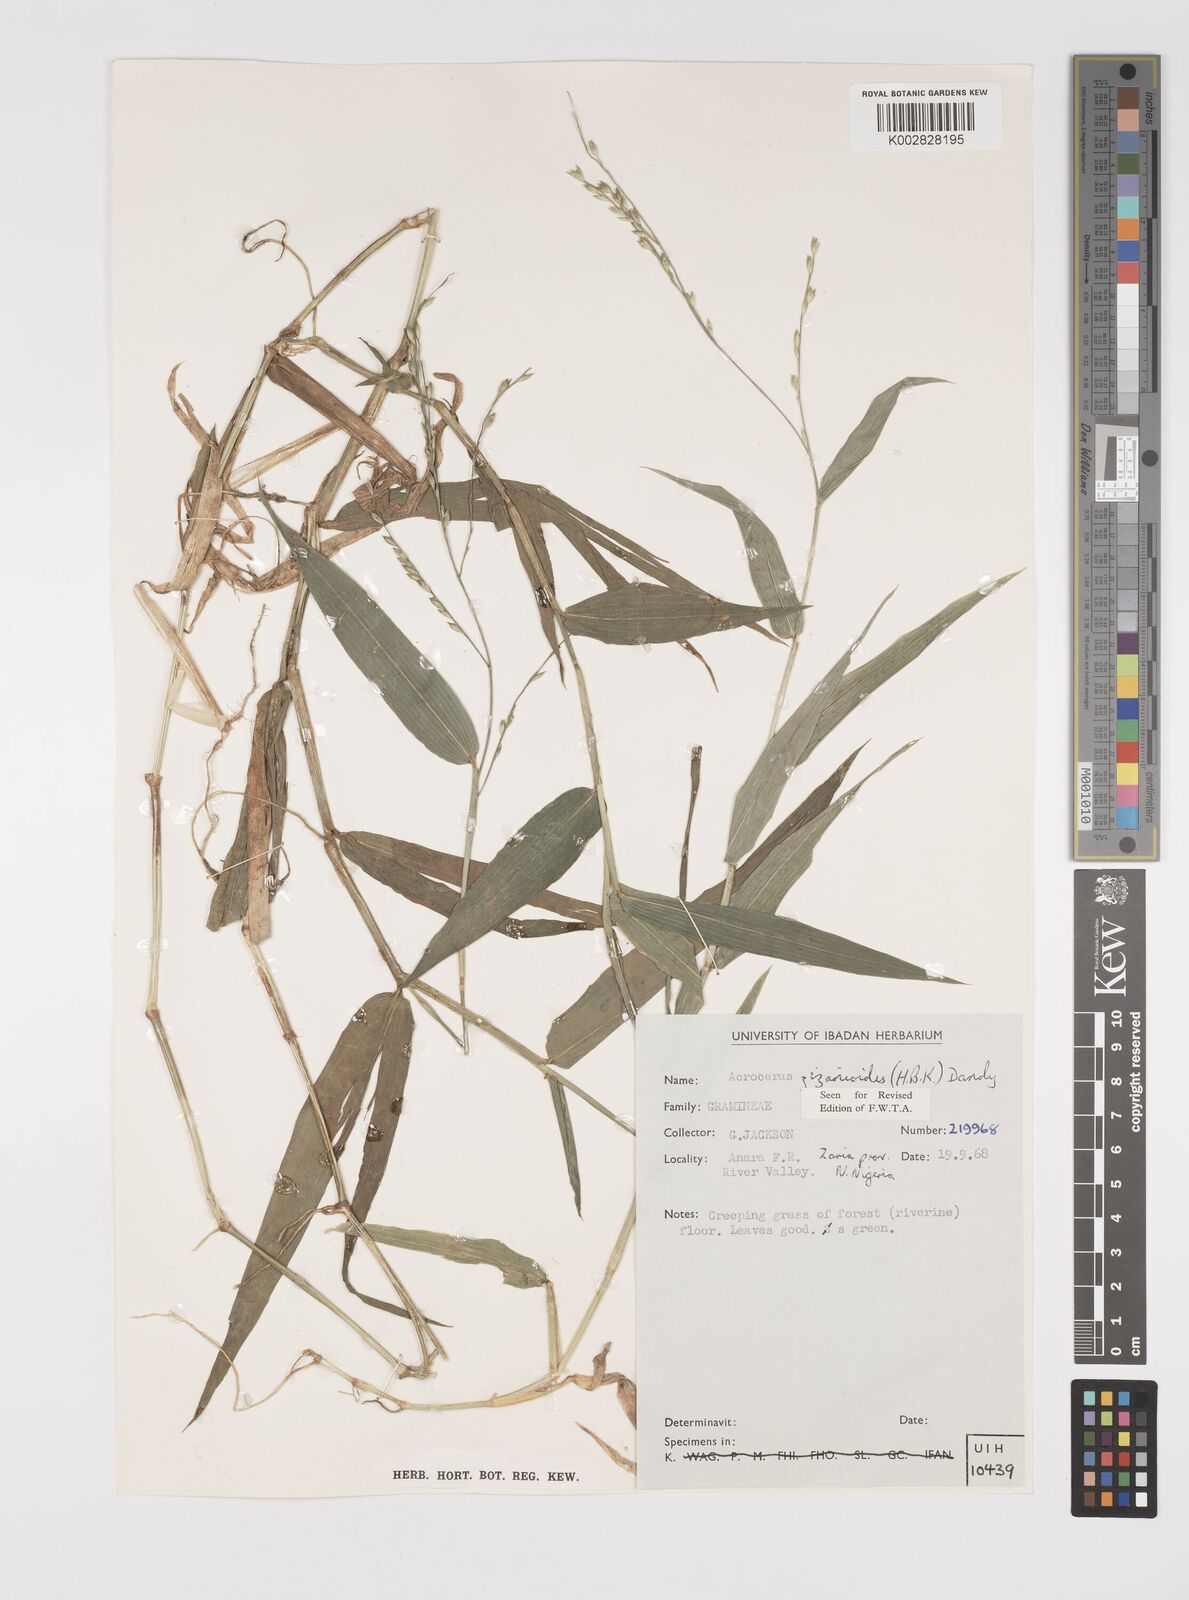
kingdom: Plantae
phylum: Tracheophyta
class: Liliopsida
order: Poales
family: Poaceae
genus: Acroceras
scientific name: Acroceras zizanioides
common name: Oat grass
